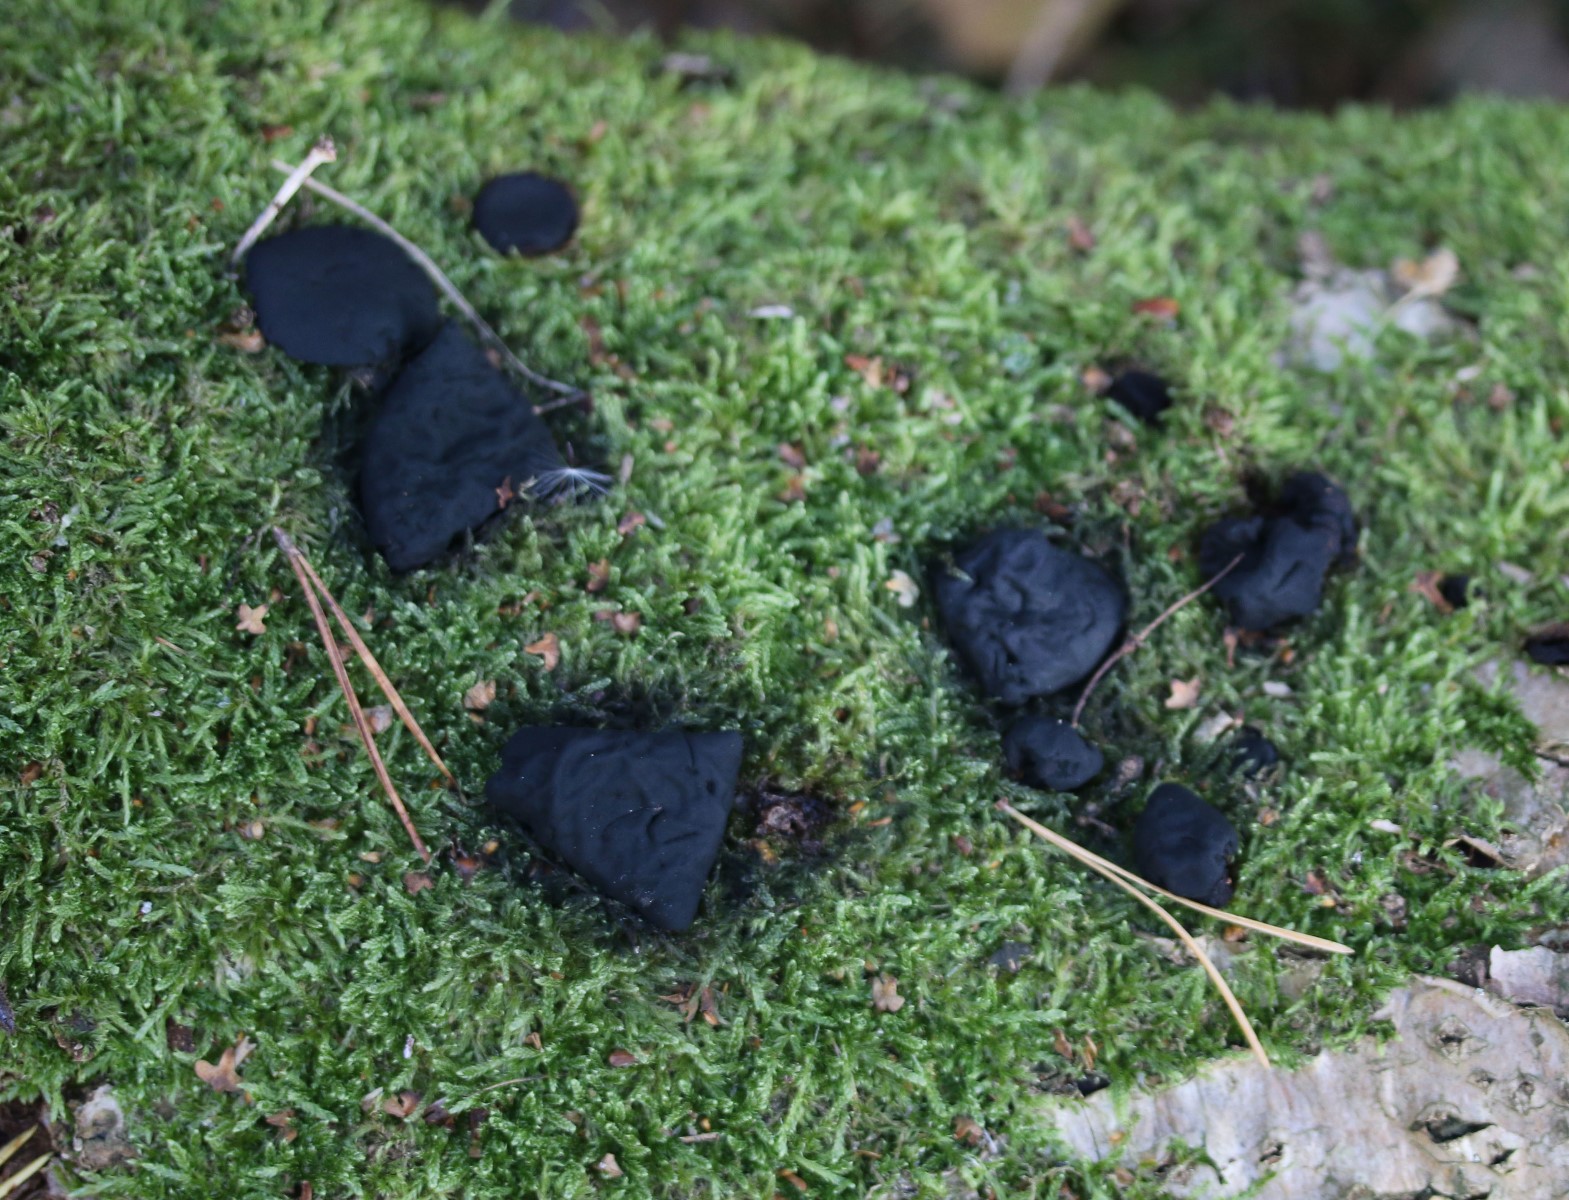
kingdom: Fungi
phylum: Ascomycota
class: Leotiomycetes
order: Phacidiales
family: Phacidiaceae
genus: Bulgaria
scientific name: Bulgaria inquinans
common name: afsmittende topsvamp
